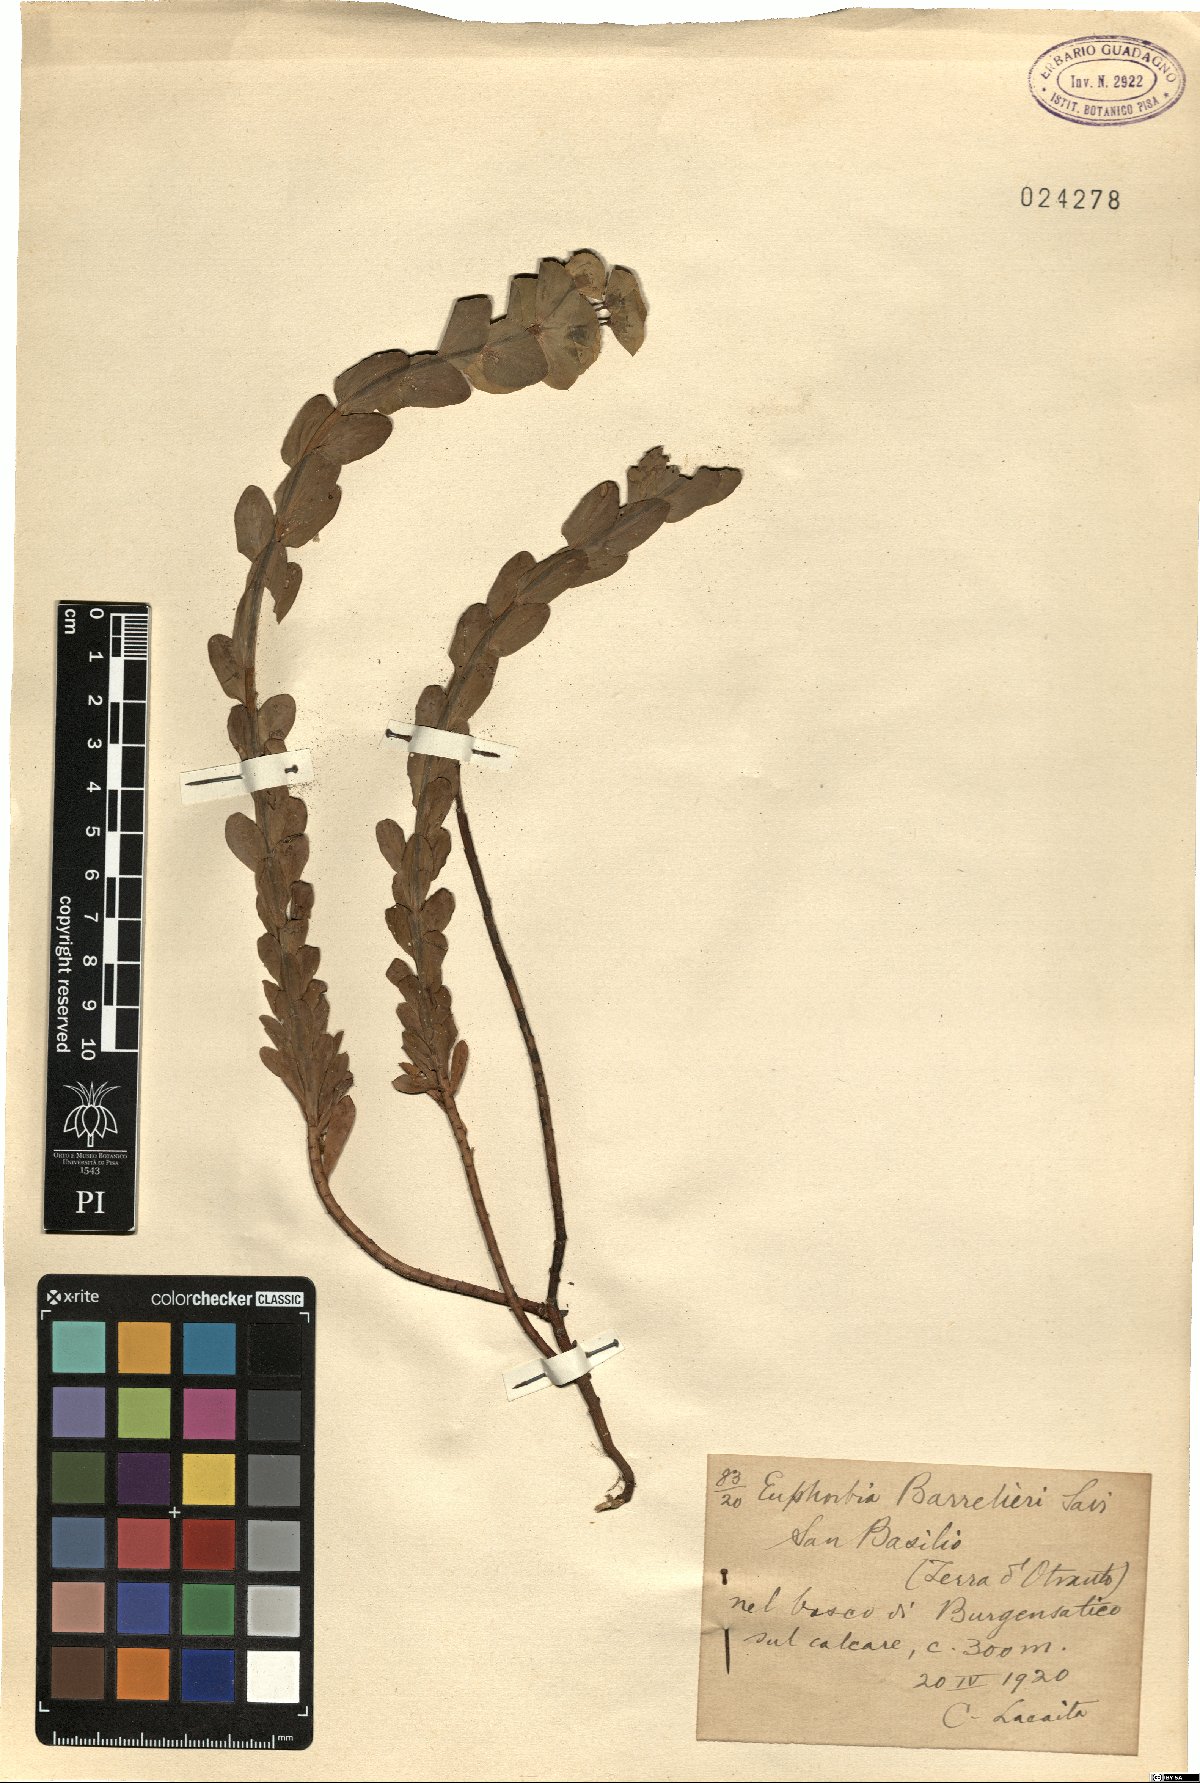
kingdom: Plantae
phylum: Tracheophyta
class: Magnoliopsida
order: Malpighiales
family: Euphorbiaceae
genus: Euphorbia
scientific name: Euphorbia barrelieri
